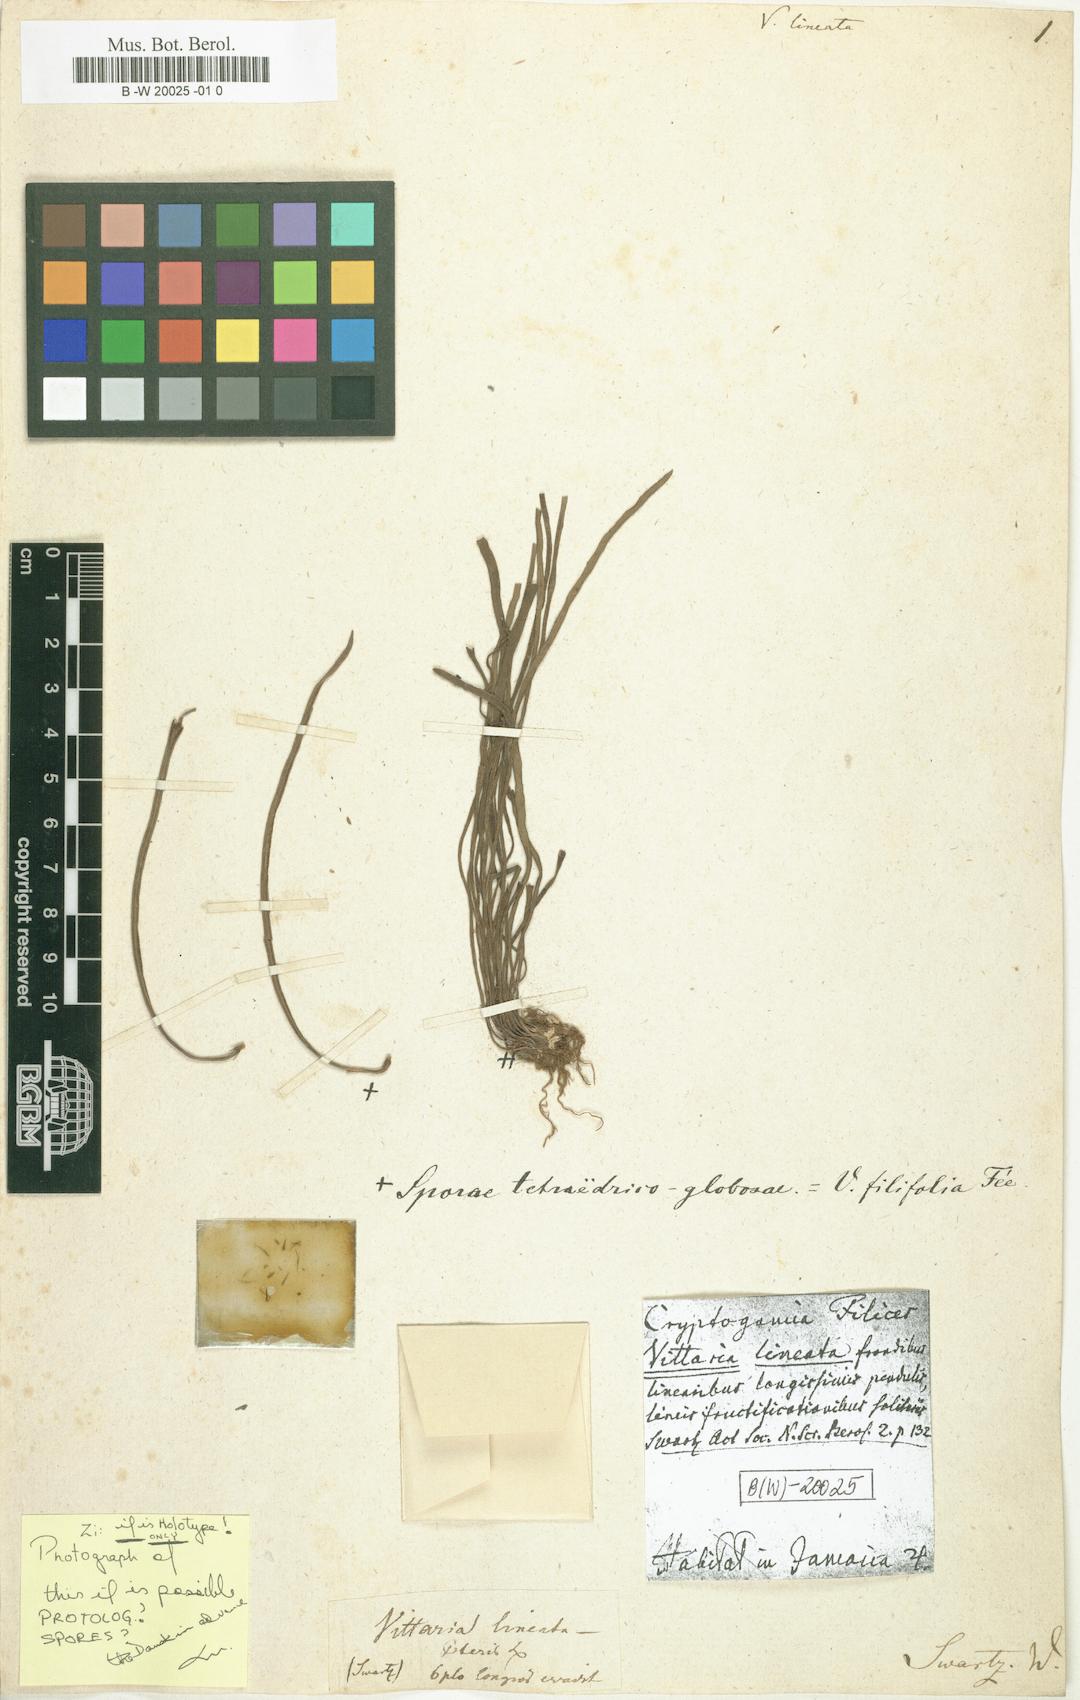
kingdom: Plantae
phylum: Tracheophyta
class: Polypodiopsida
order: Polypodiales
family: Pteridaceae
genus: Vittaria
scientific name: Vittaria lineata
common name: Shoestring fern
